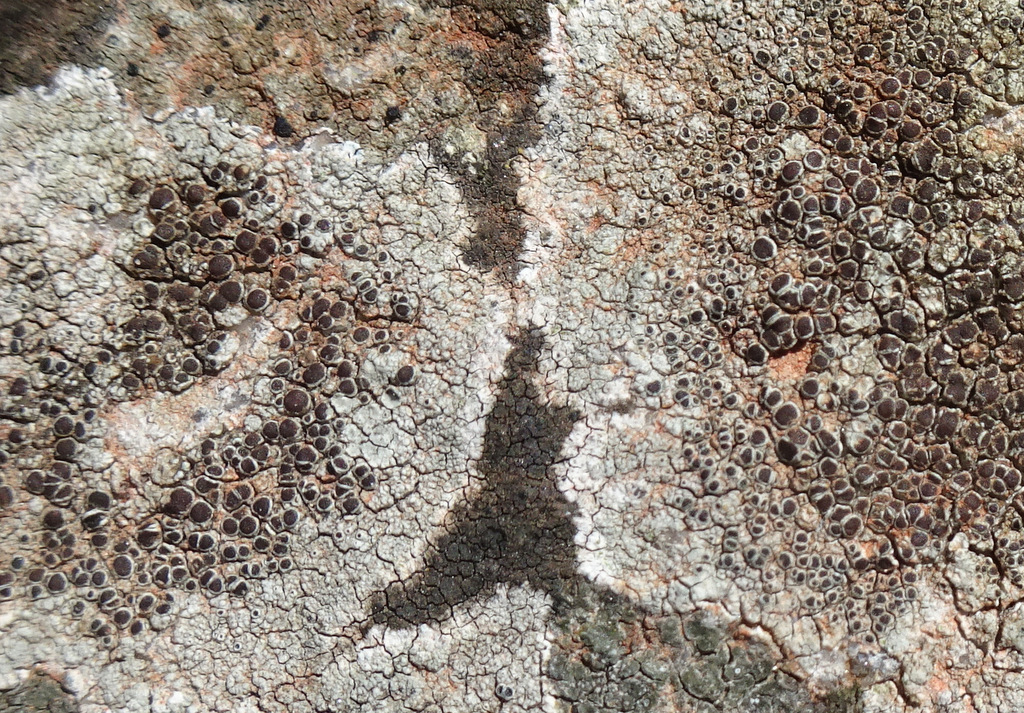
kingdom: Fungi
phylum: Ascomycota
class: Lecanoromycetes
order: Lecanorales
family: Lecanoraceae
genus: Lecanora
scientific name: Lecanora campestris
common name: mur-kantskivelav
